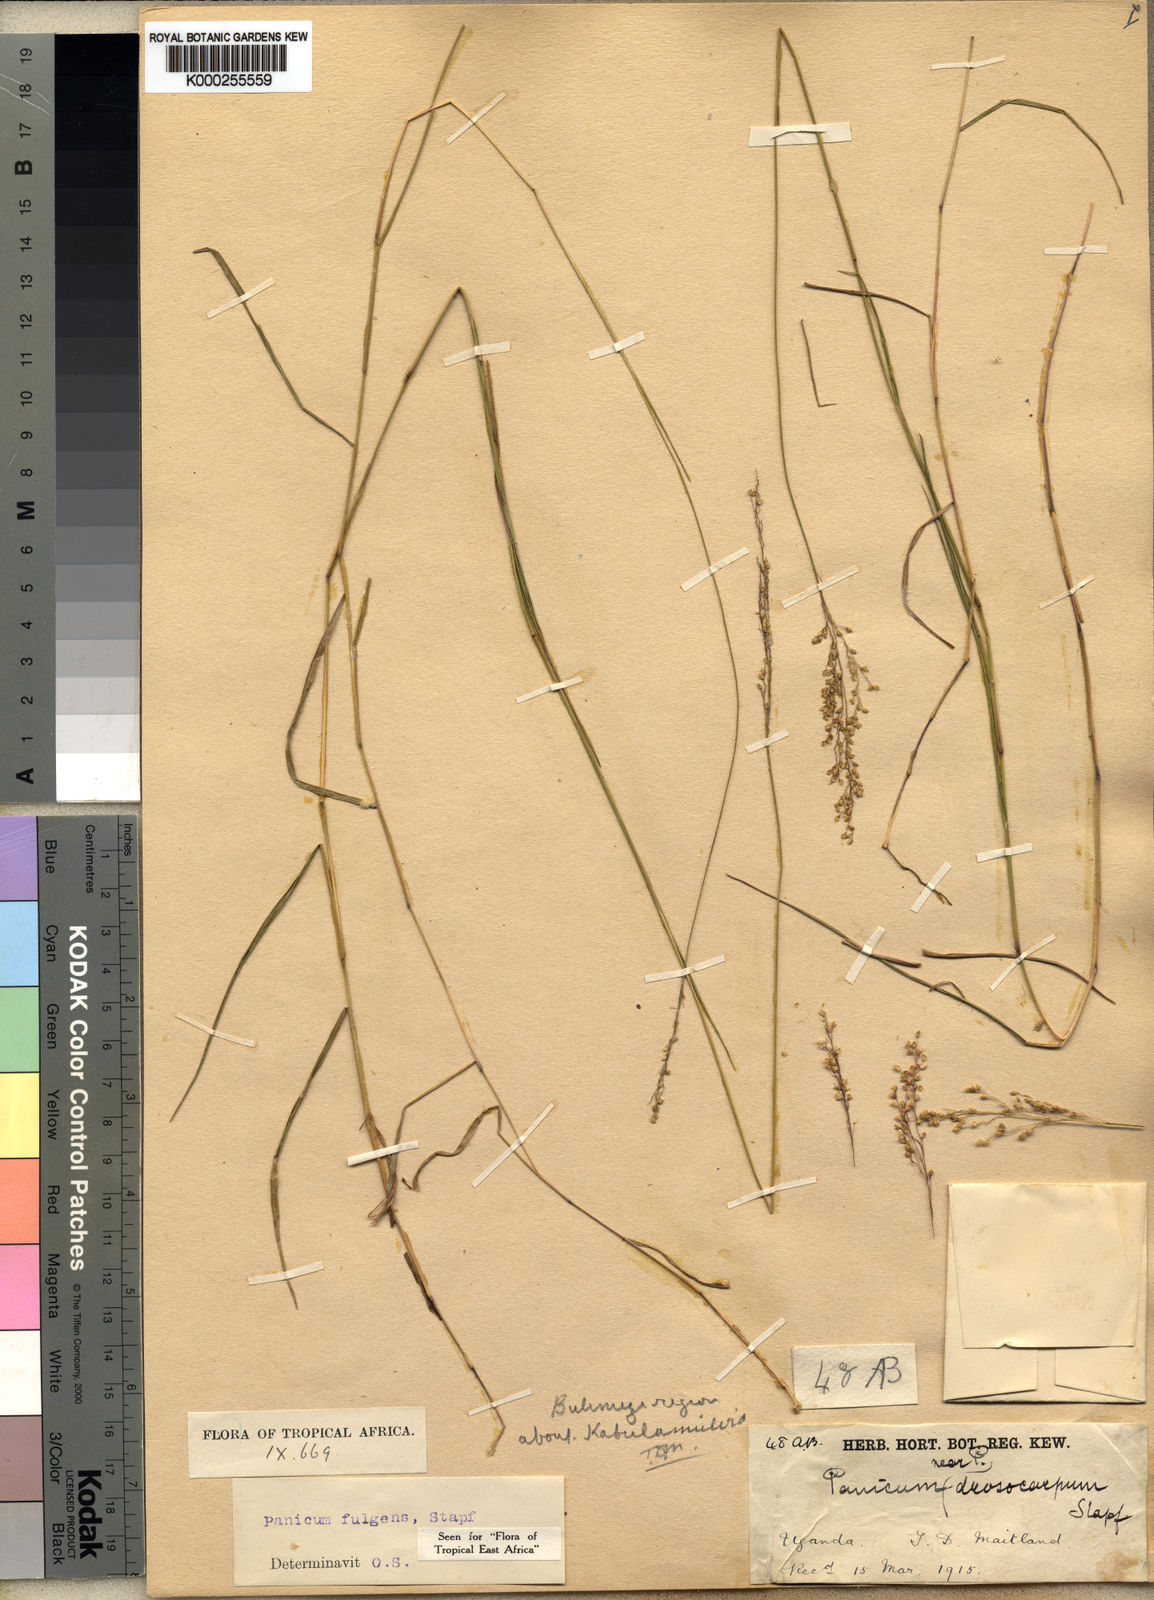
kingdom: Plantae
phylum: Tracheophyta
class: Liliopsida
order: Poales
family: Poaceae
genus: Trichanthecium
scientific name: Trichanthecium nervatum
